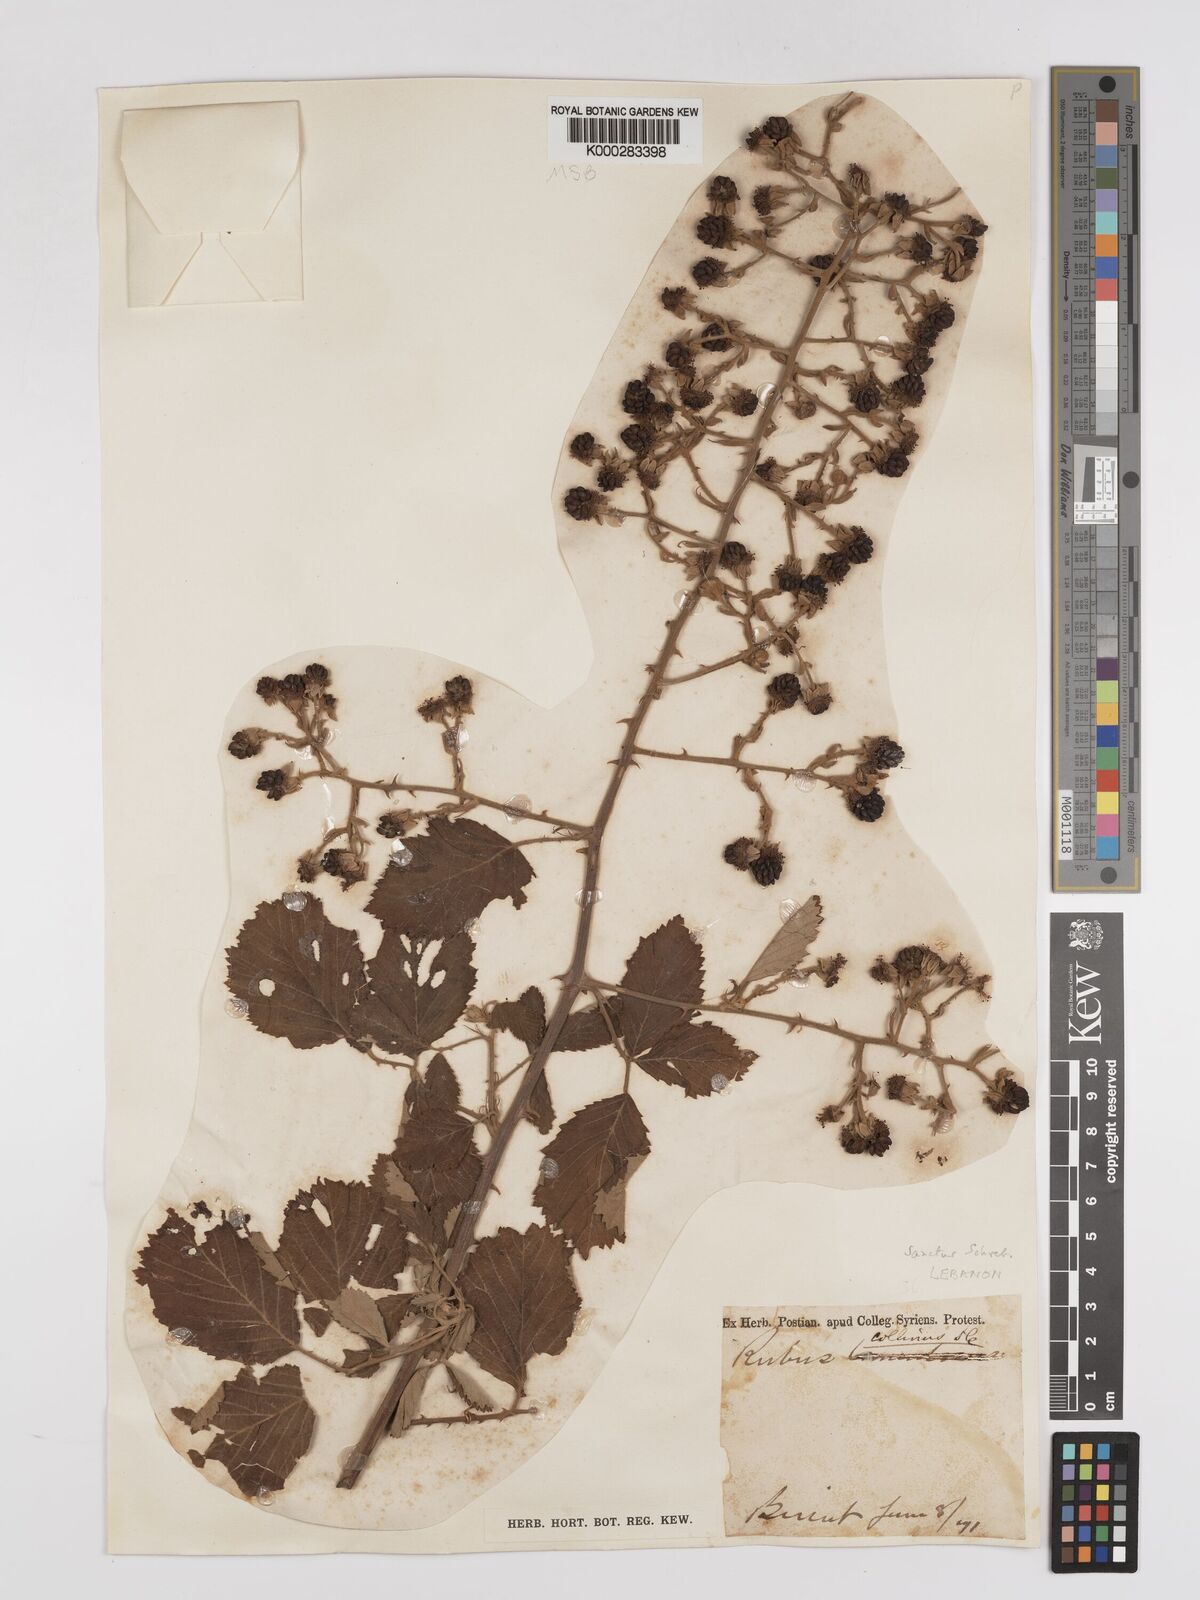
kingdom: Plantae
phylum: Tracheophyta
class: Magnoliopsida
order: Rosales
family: Rosaceae
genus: Rubus
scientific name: Rubus sanctus
